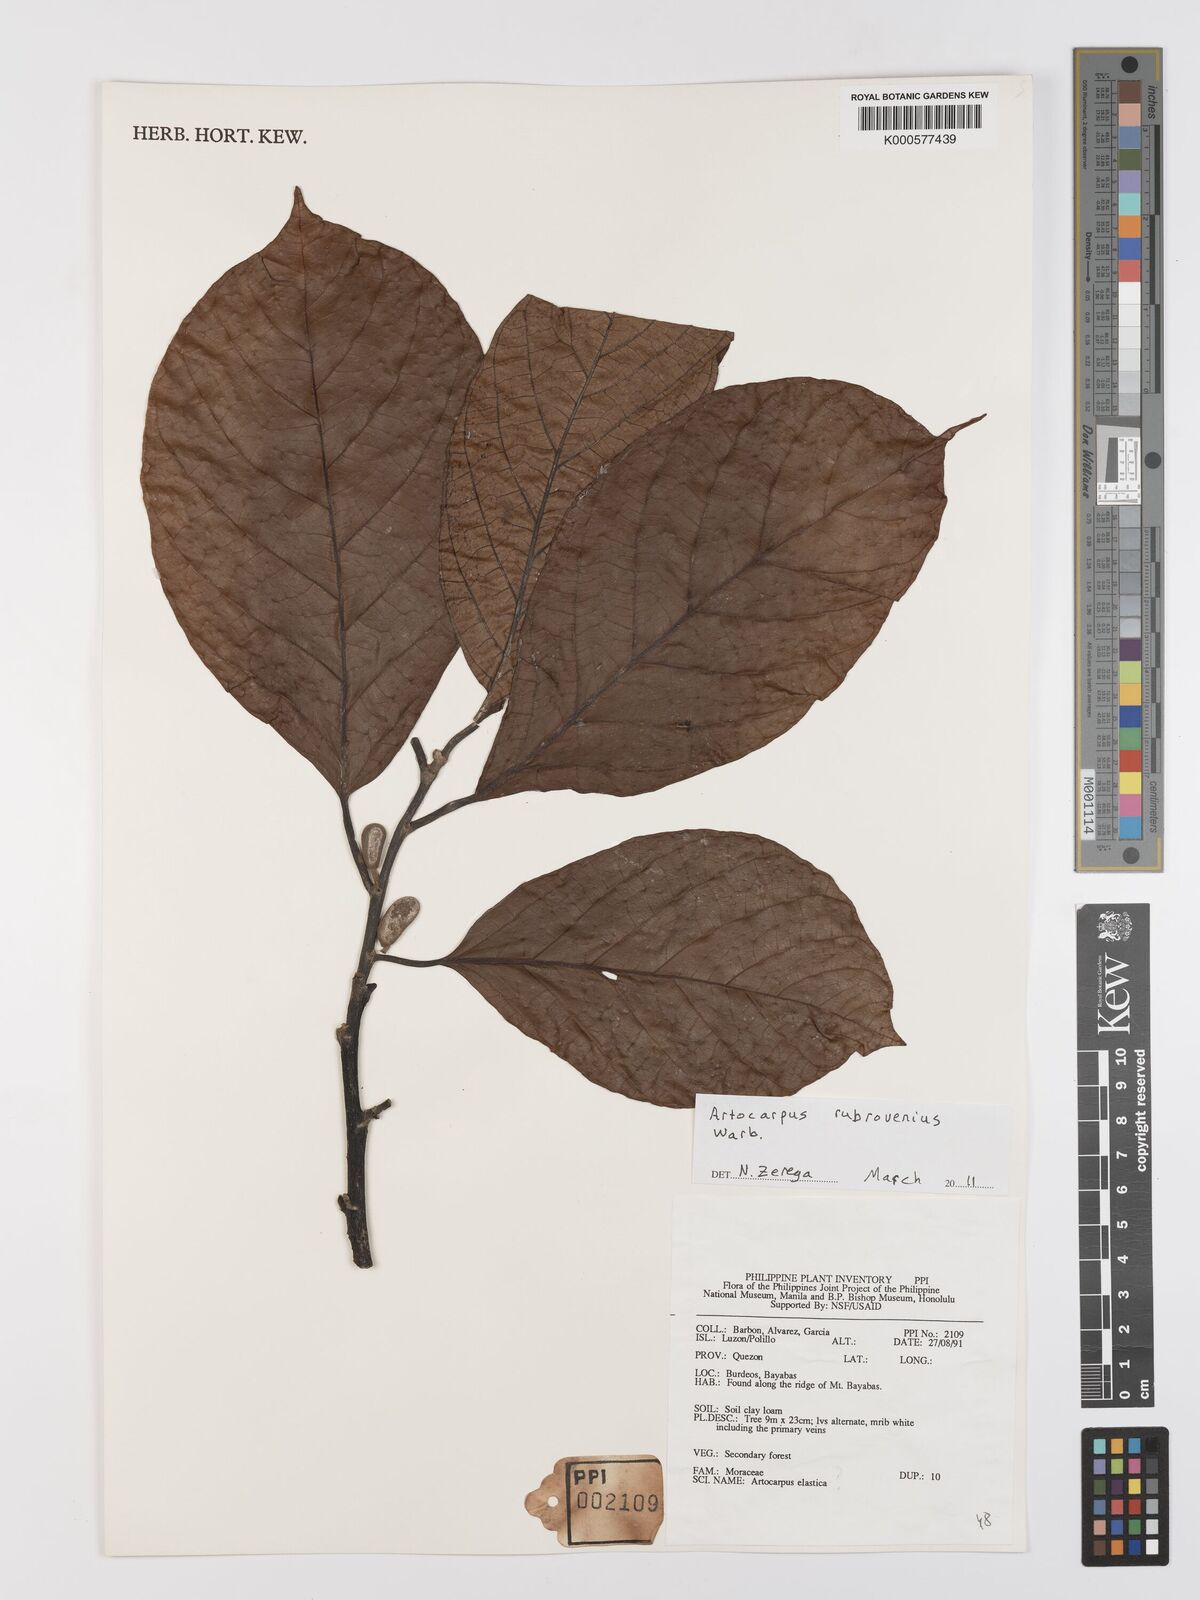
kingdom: Plantae
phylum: Tracheophyta
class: Magnoliopsida
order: Rosales
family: Moraceae
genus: Artocarpus
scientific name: Artocarpus rubrovenius
